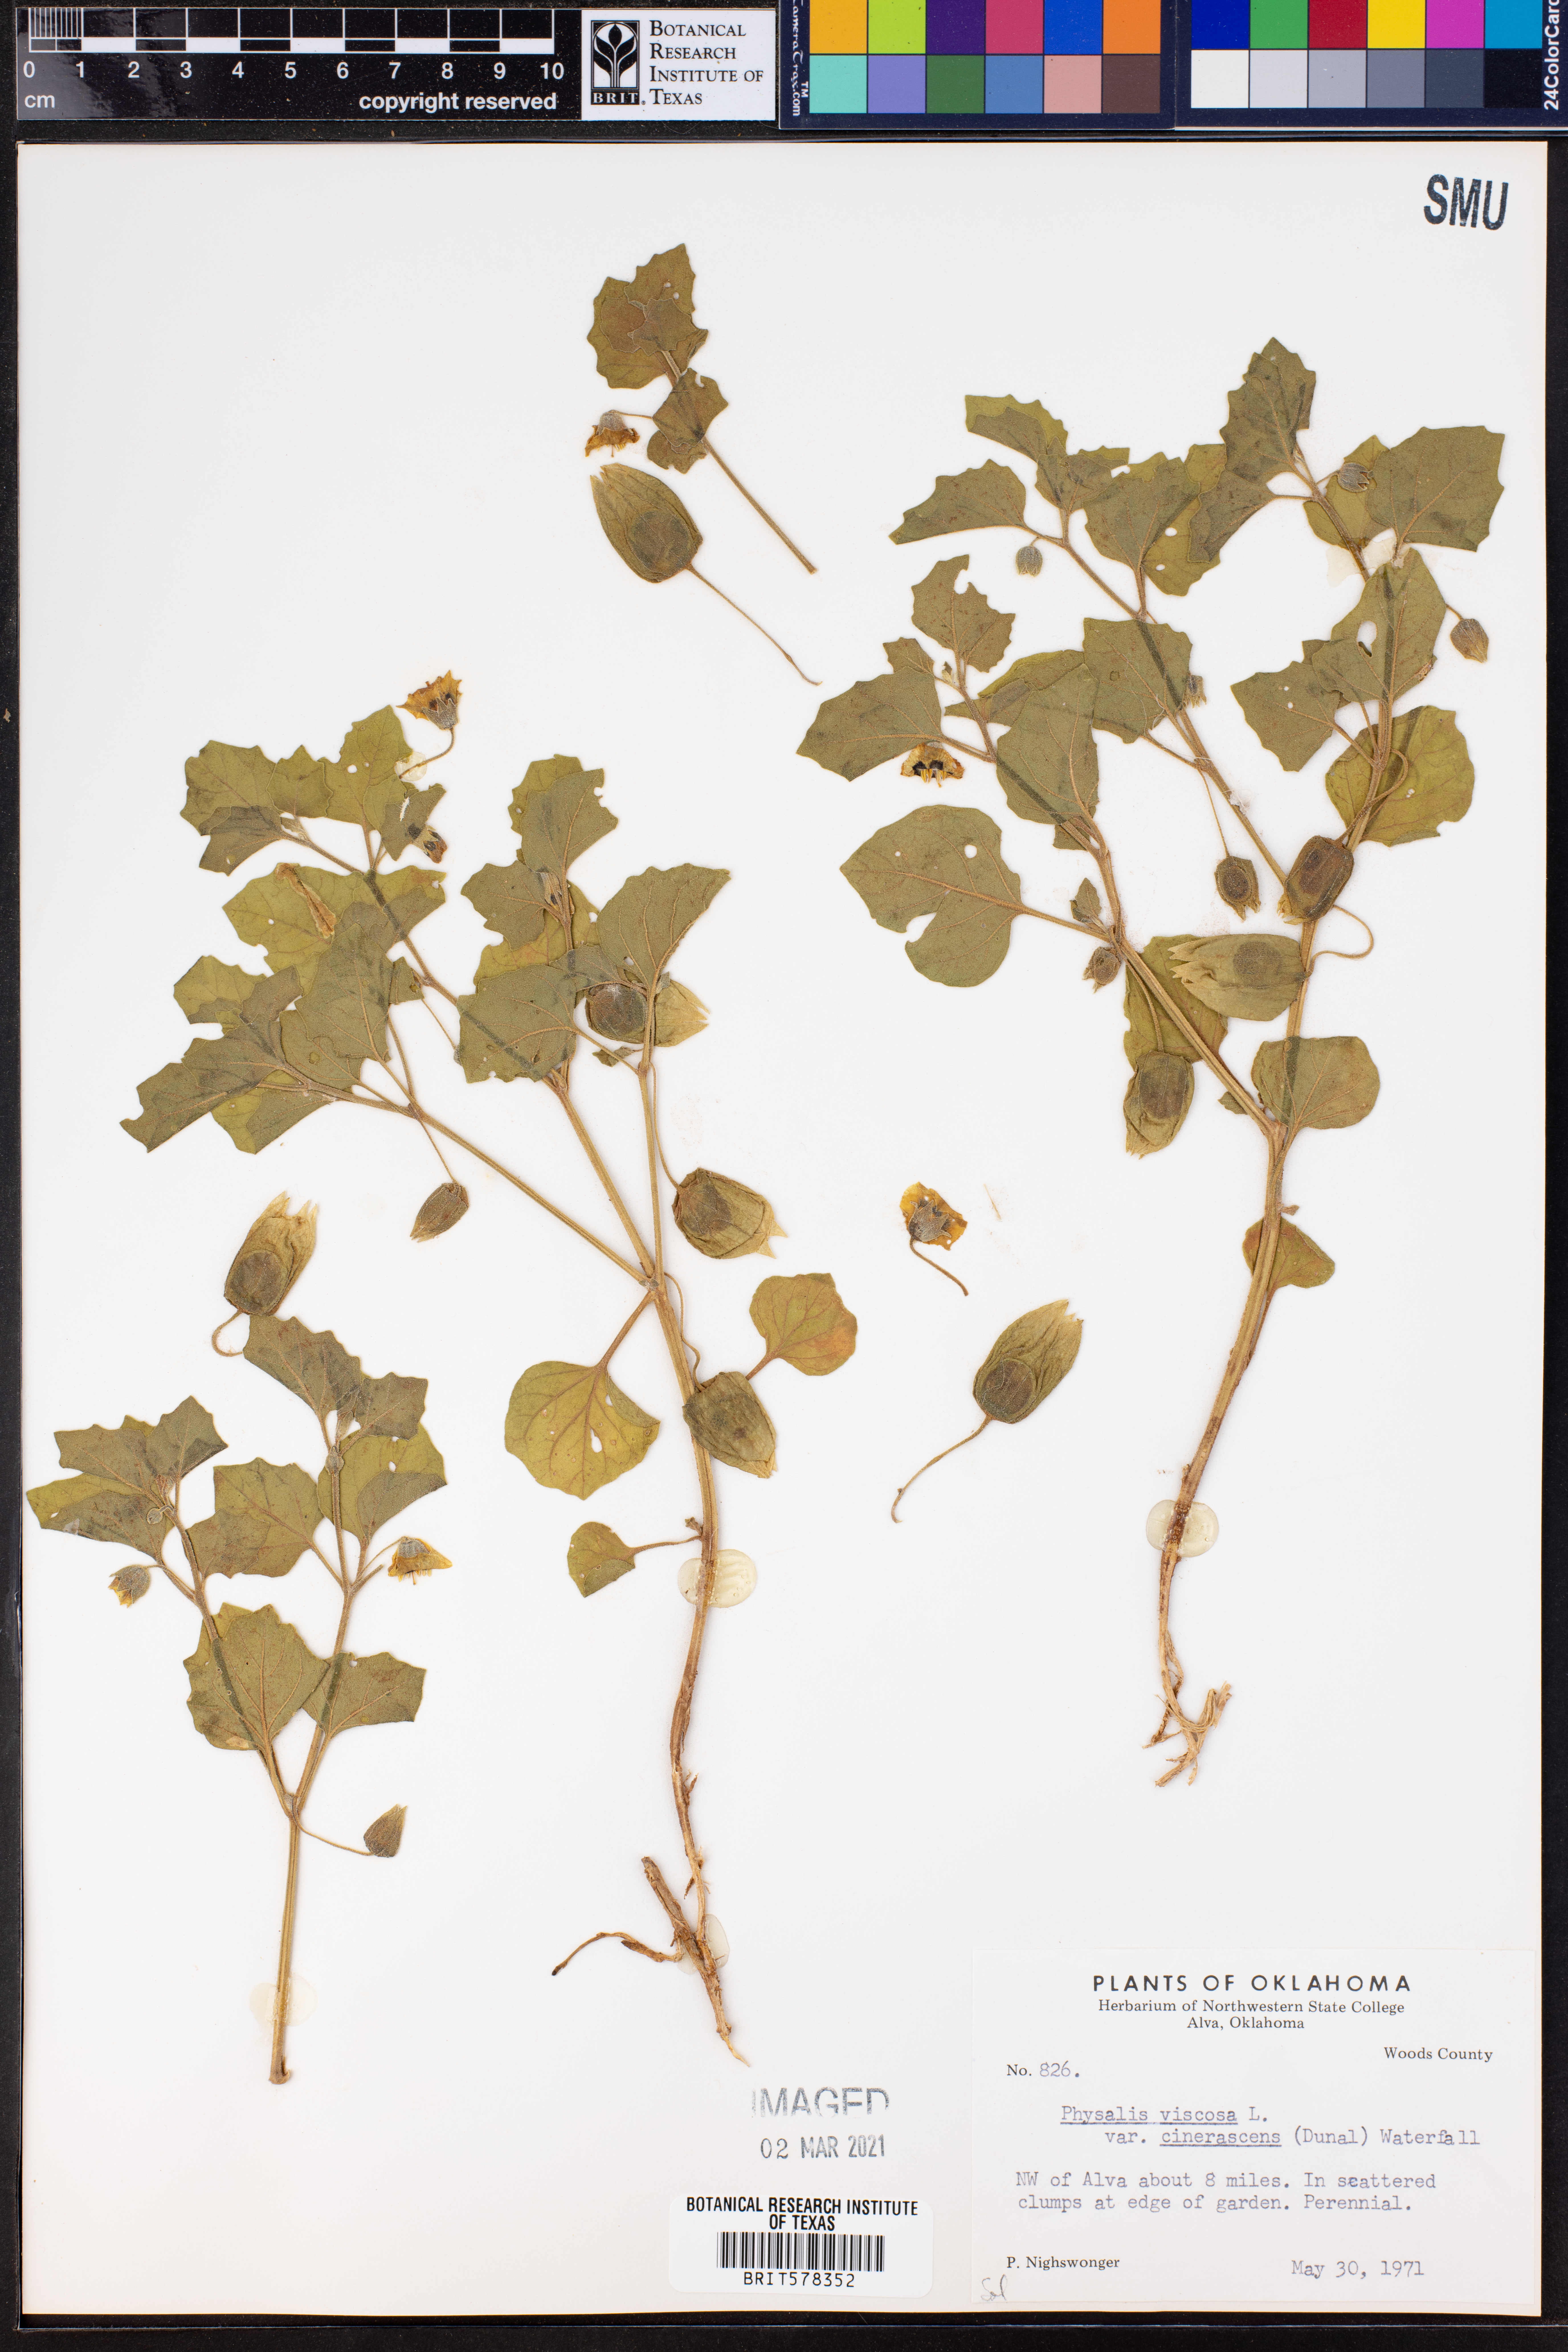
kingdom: Plantae
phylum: Tracheophyta
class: Magnoliopsida
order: Solanales
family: Solanaceae
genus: Physalis
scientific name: Physalis cinerascens
